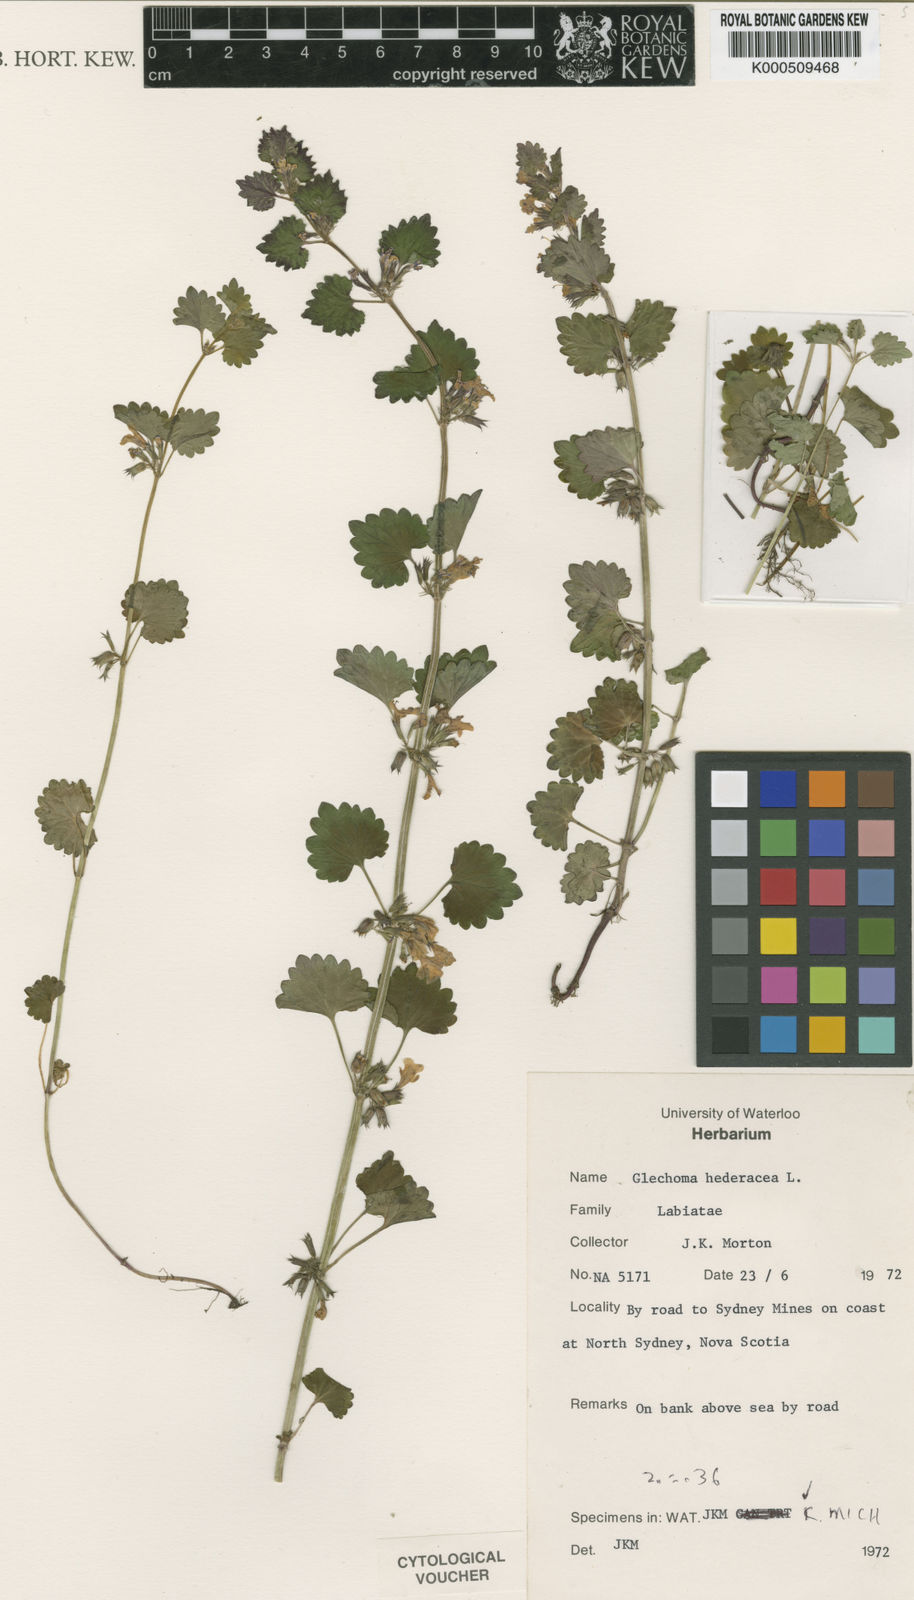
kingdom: Plantae
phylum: Tracheophyta
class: Magnoliopsida
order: Lamiales
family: Lamiaceae
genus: Glechoma
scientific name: Glechoma hederacea
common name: Ground ivy
